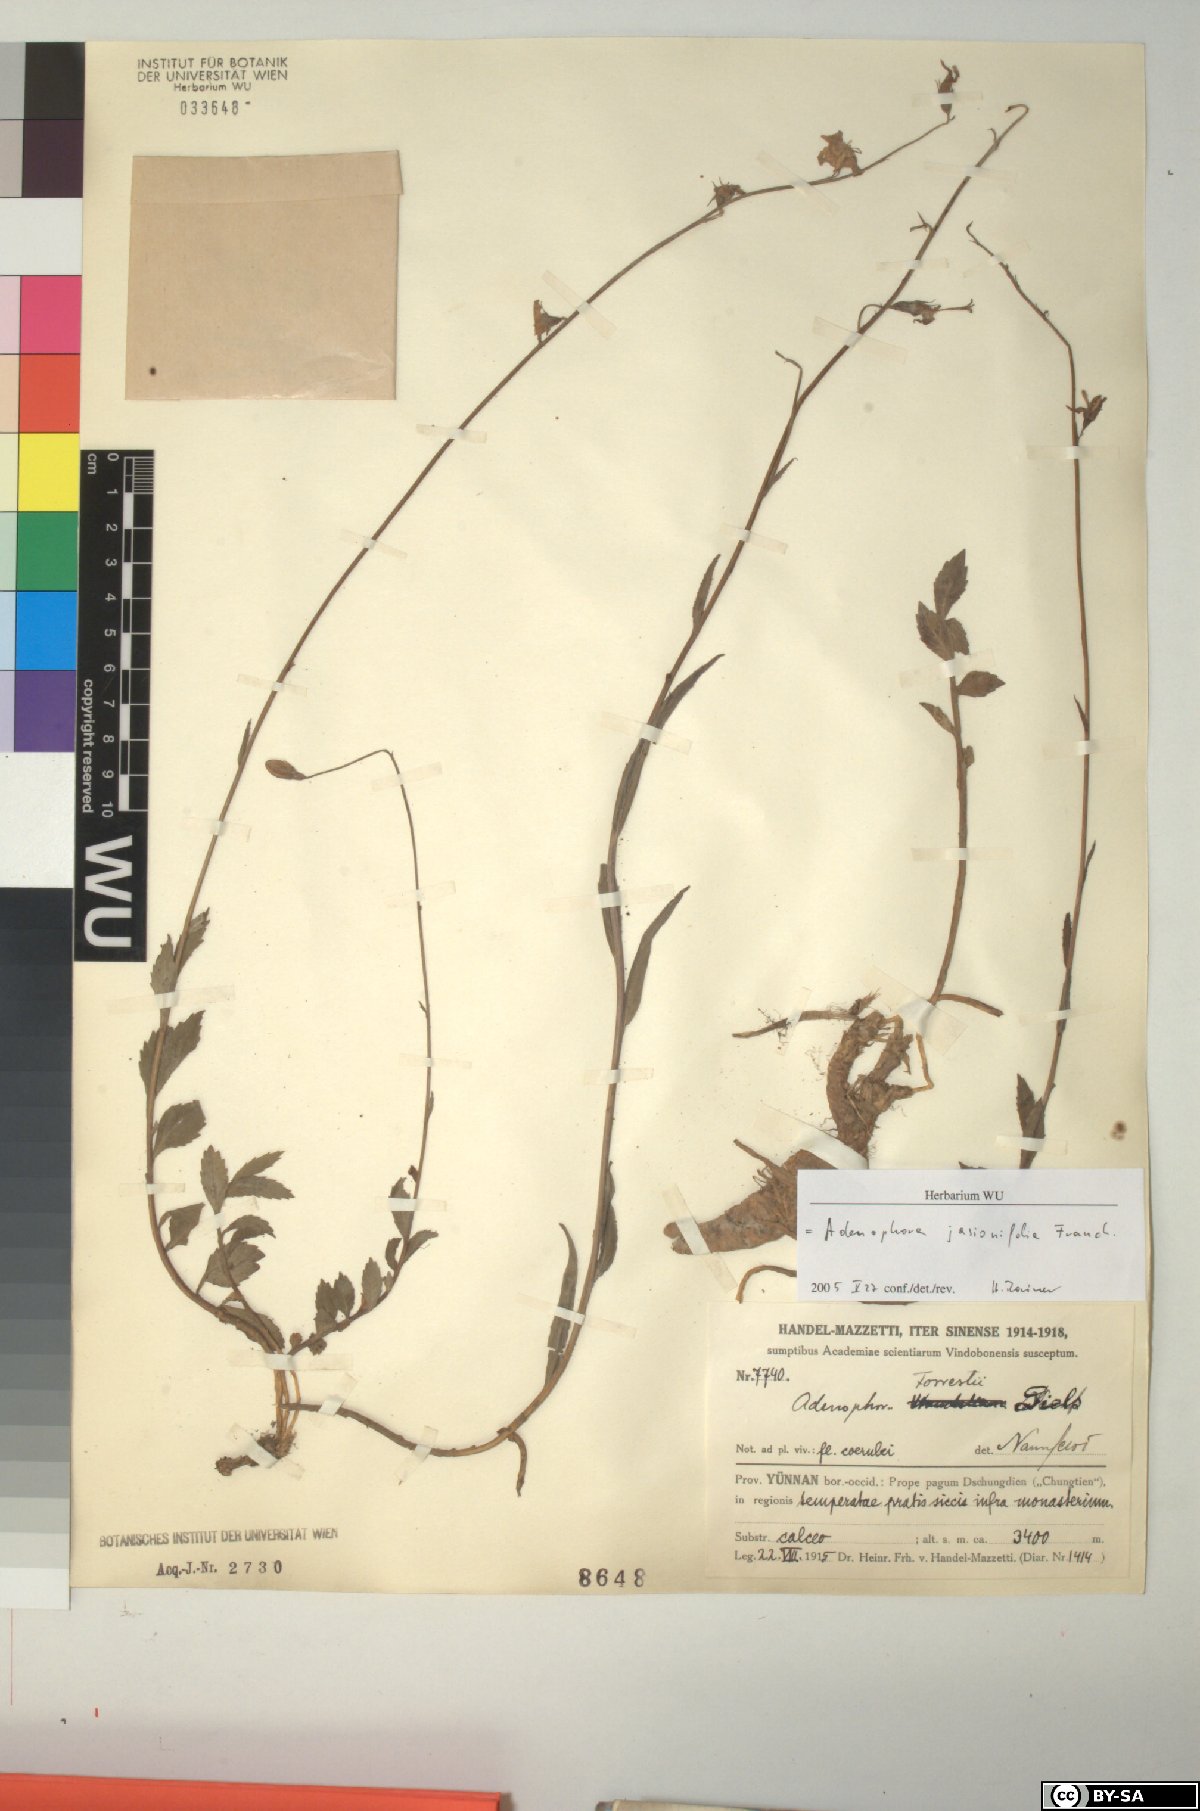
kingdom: Plantae
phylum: Tracheophyta
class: Magnoliopsida
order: Asterales
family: Campanulaceae
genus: Adenophora
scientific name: Adenophora jasionifolia
